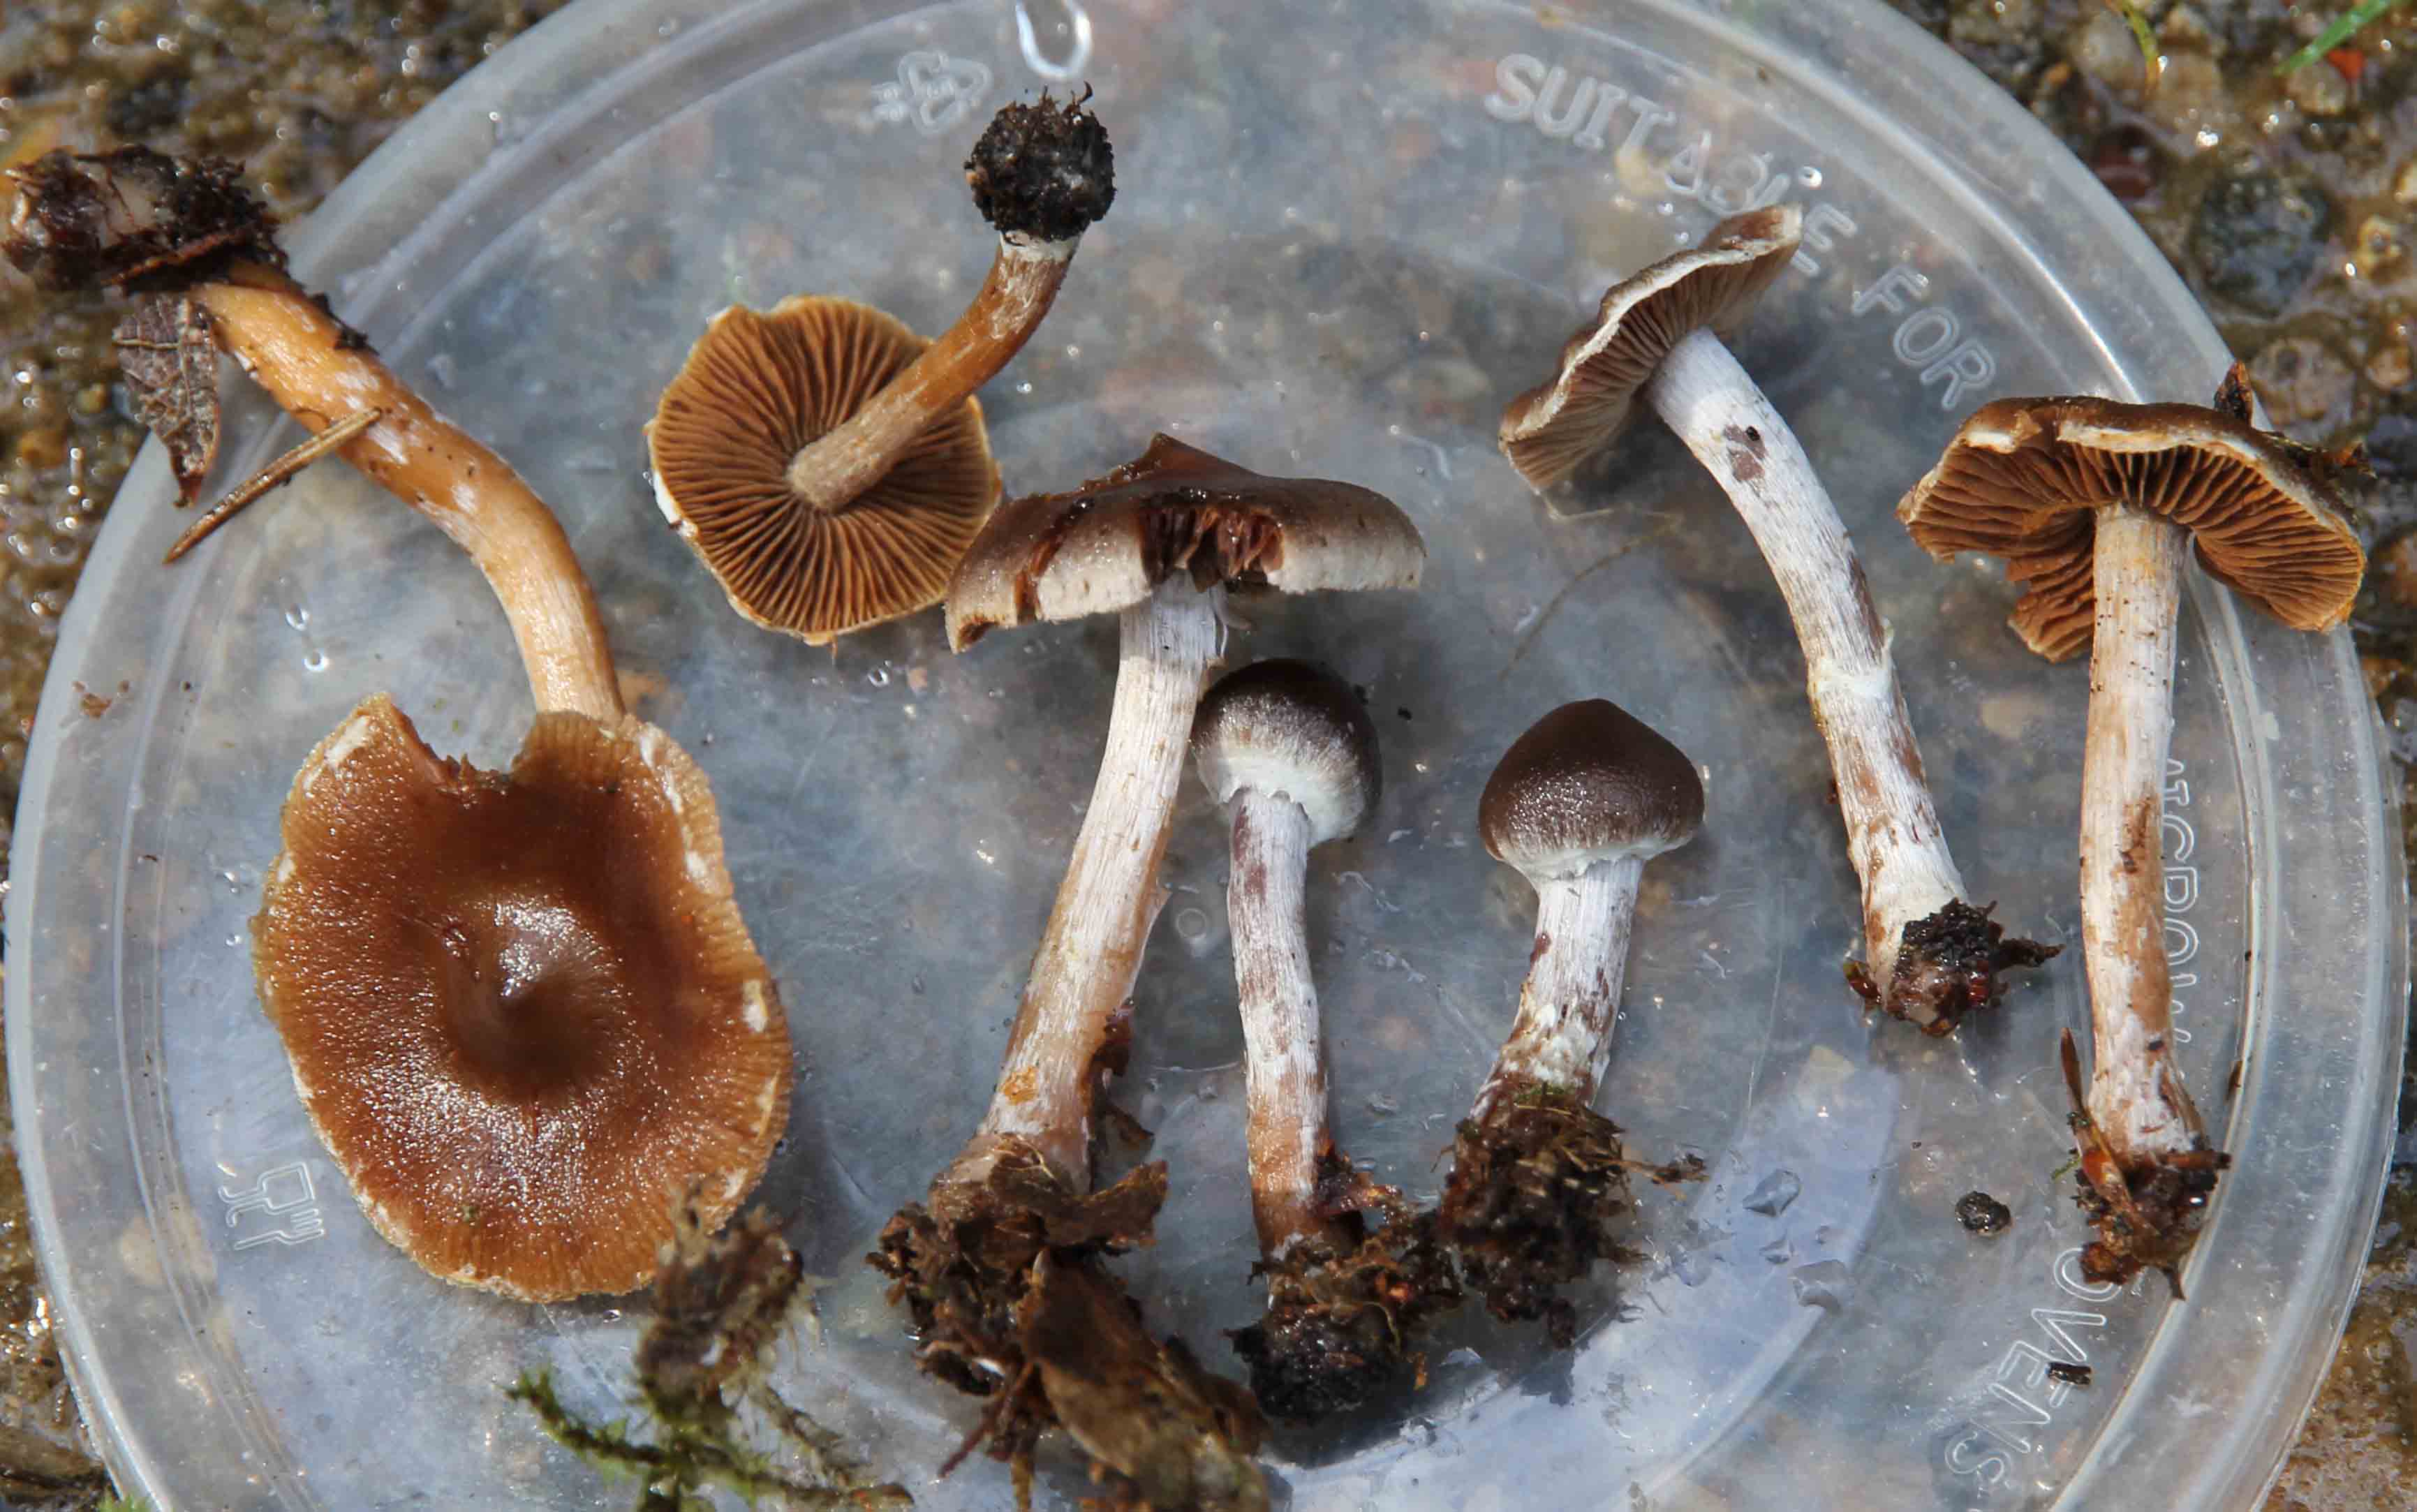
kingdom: Fungi
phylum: Basidiomycota
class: Agaricomycetes
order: Agaricales
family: Cortinariaceae
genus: Cortinarius
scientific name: Cortinarius
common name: pelargonie-slørhat
